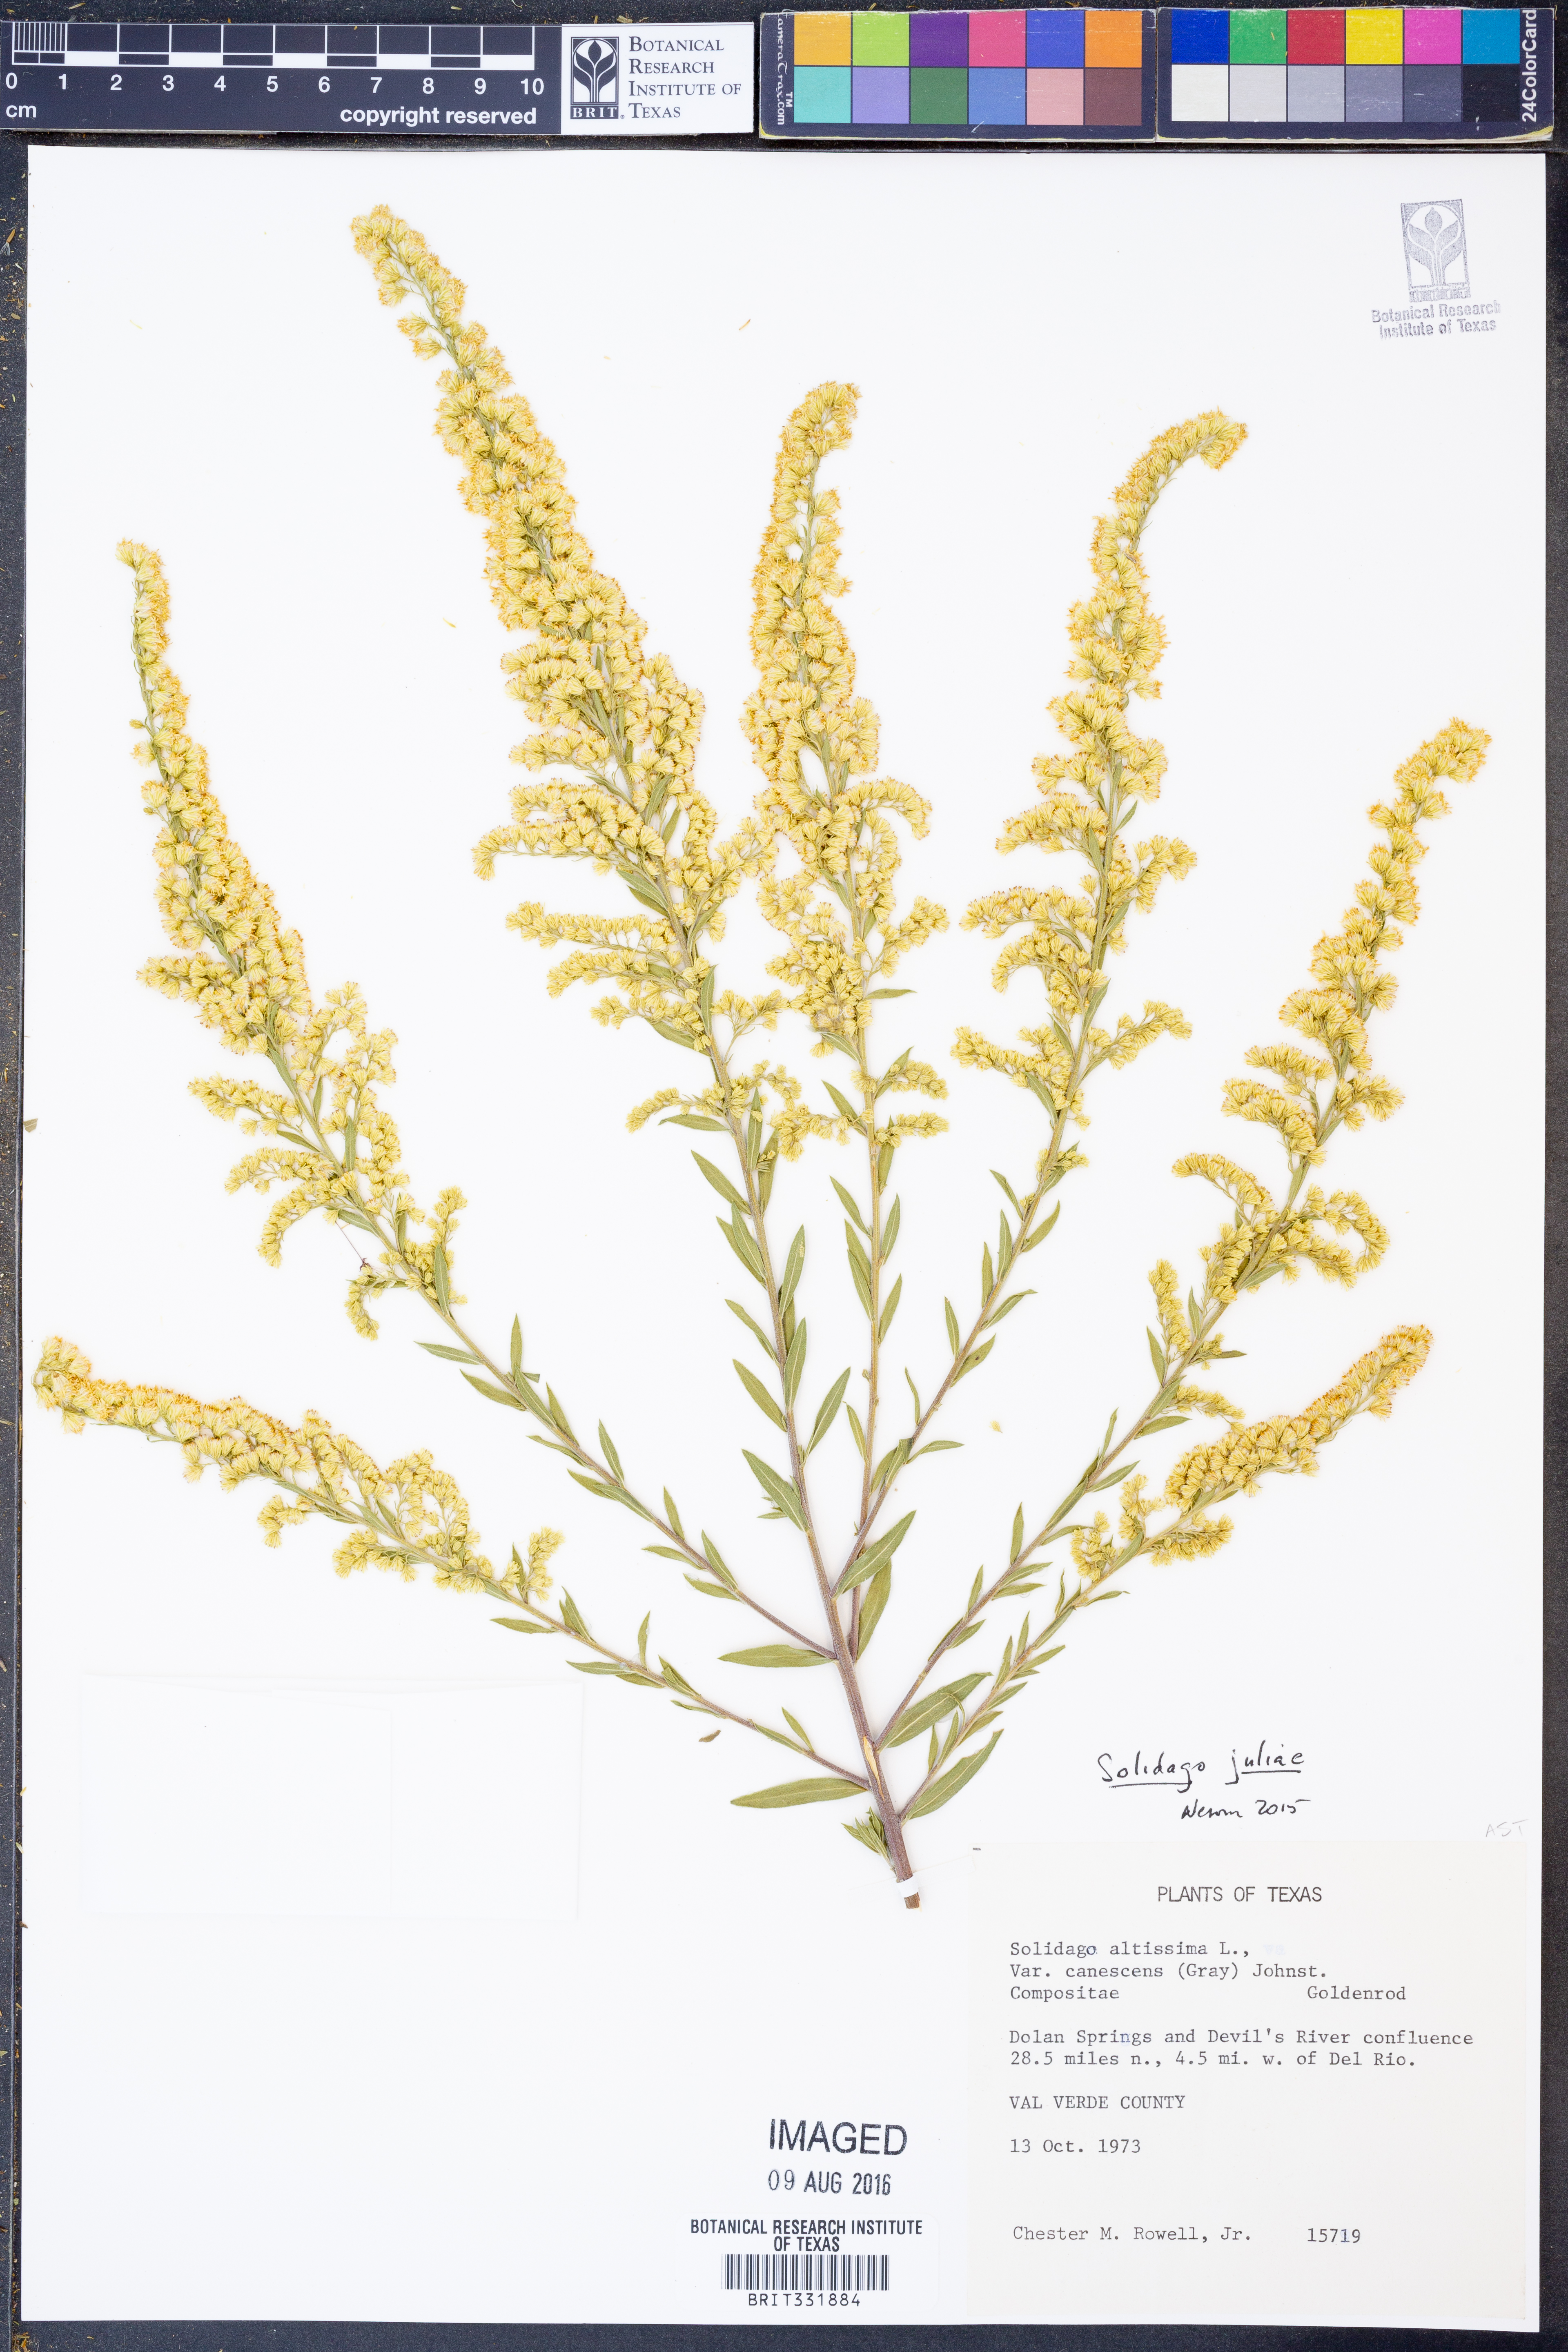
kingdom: Plantae
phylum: Tracheophyta
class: Magnoliopsida
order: Asterales
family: Asteraceae
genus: Solidago
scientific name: Solidago juliae
